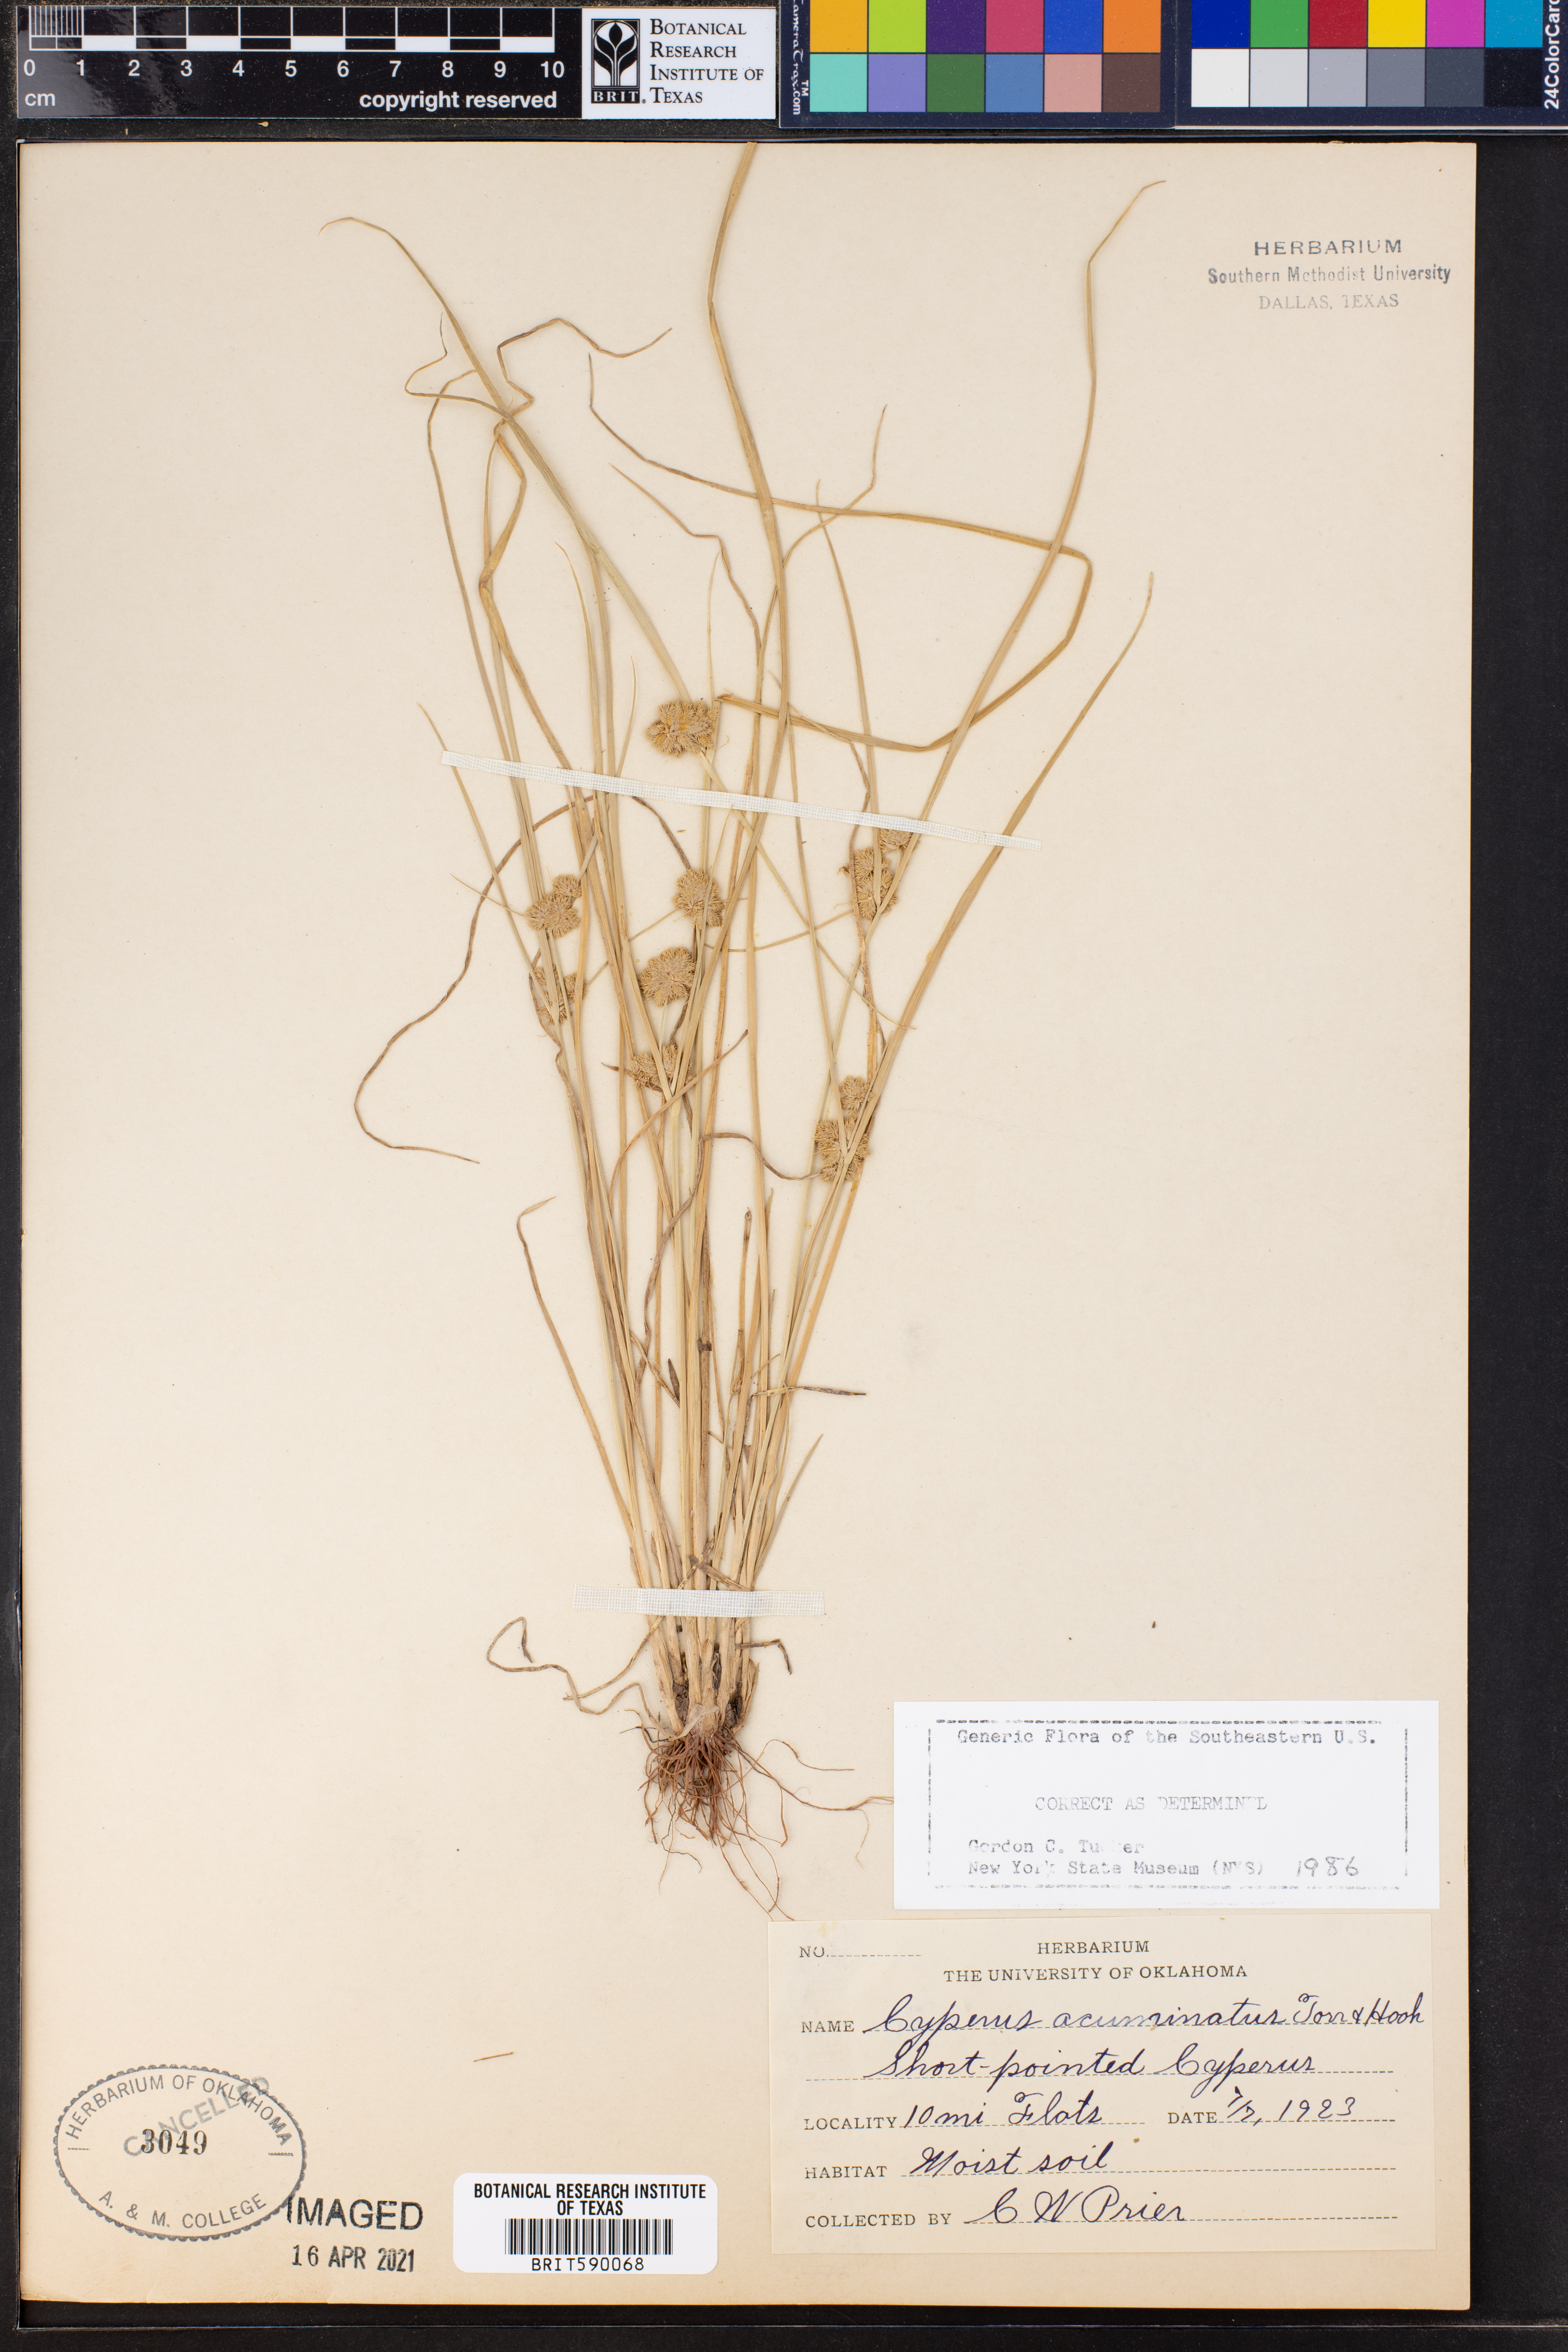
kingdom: Plantae
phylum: Tracheophyta
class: Liliopsida
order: Poales
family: Cyperaceae
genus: Cyperus
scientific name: Cyperus acuminatus
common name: Short-pointed cyperus
